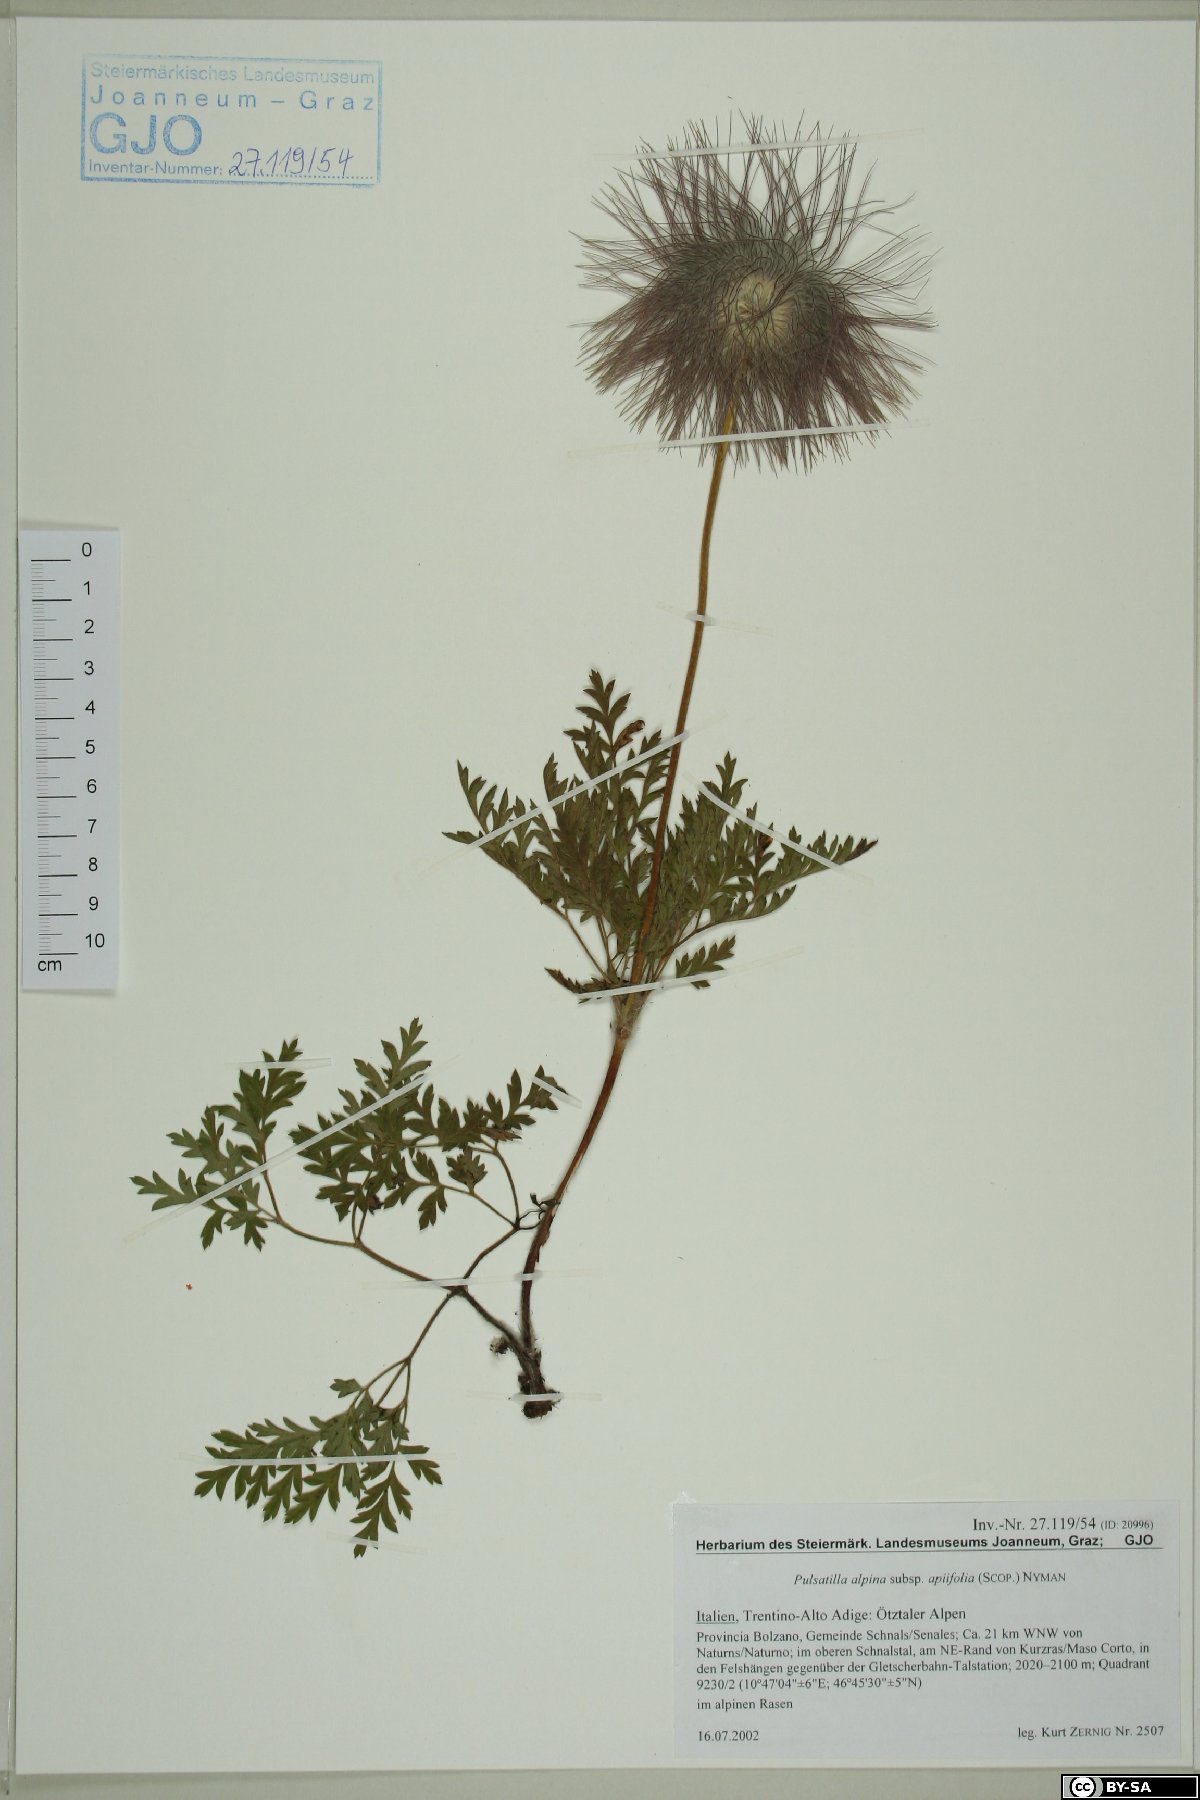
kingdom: Plantae
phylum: Tracheophyta
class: Magnoliopsida
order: Ranunculales
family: Ranunculaceae
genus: Pulsatilla
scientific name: Pulsatilla alpina
